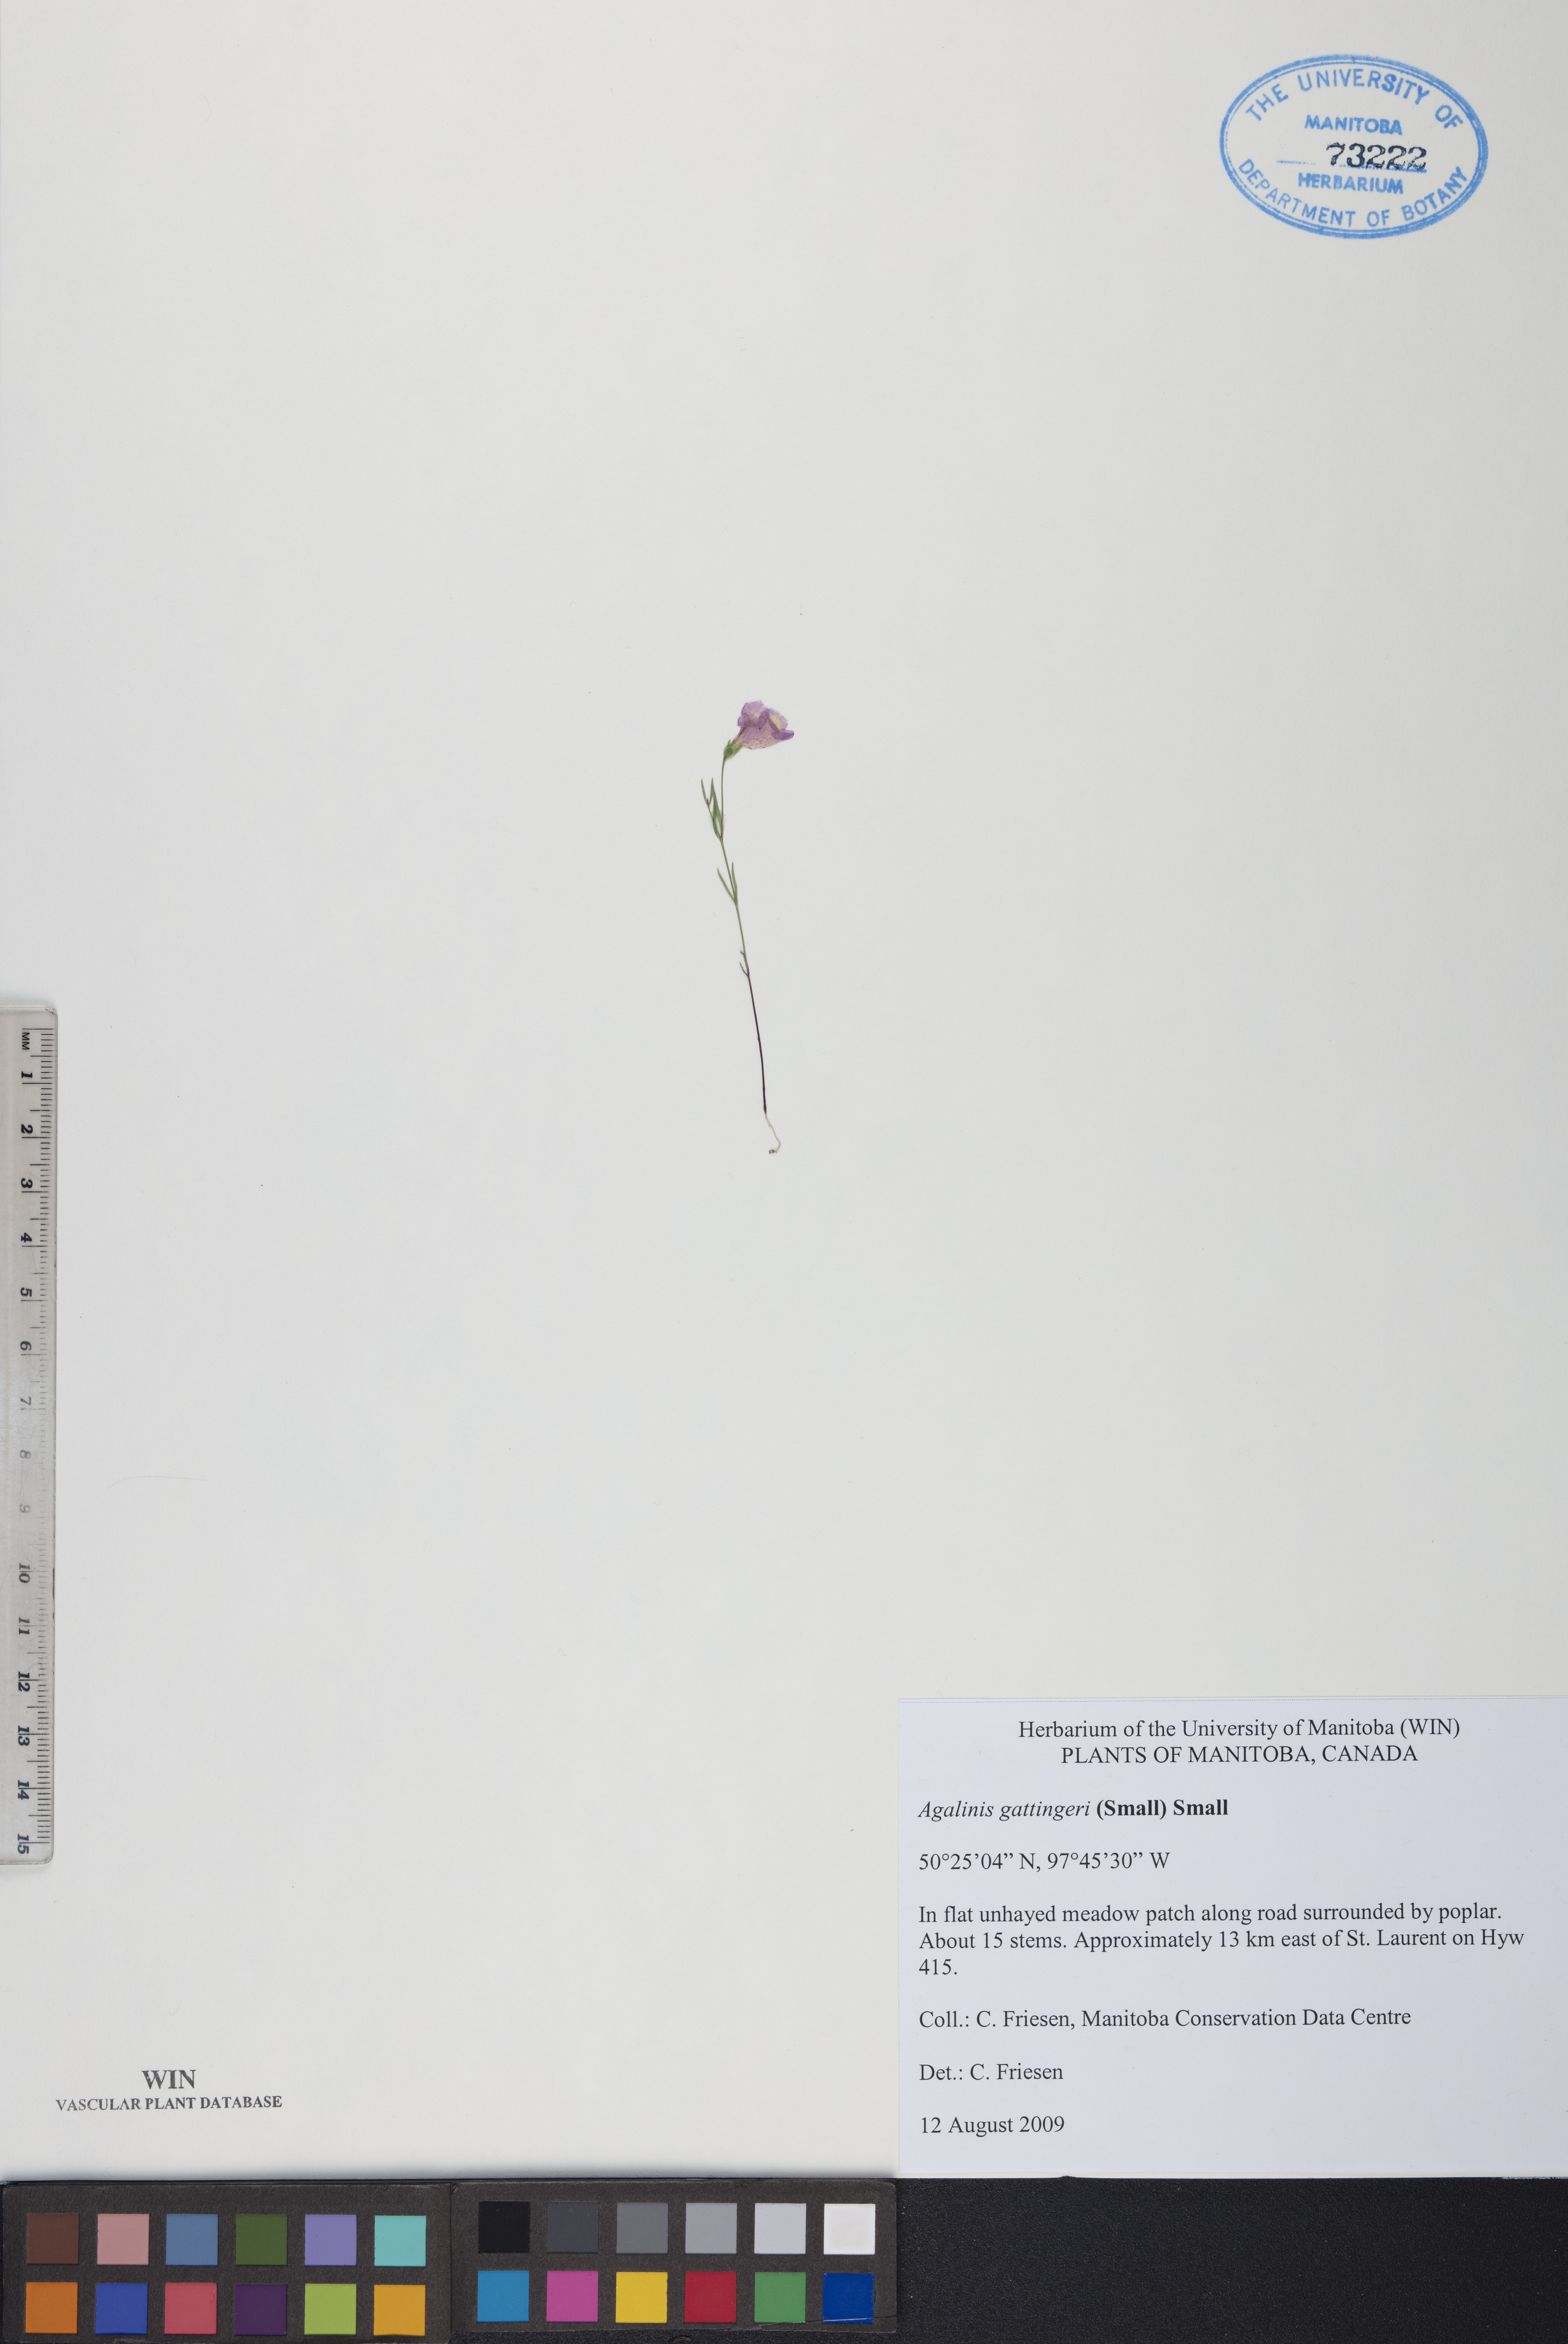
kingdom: Plantae
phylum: Tracheophyta
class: Magnoliopsida
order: Lamiales
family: Orobanchaceae
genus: Agalinis
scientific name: Agalinis gattingeri
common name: Gattinger's agalinis
